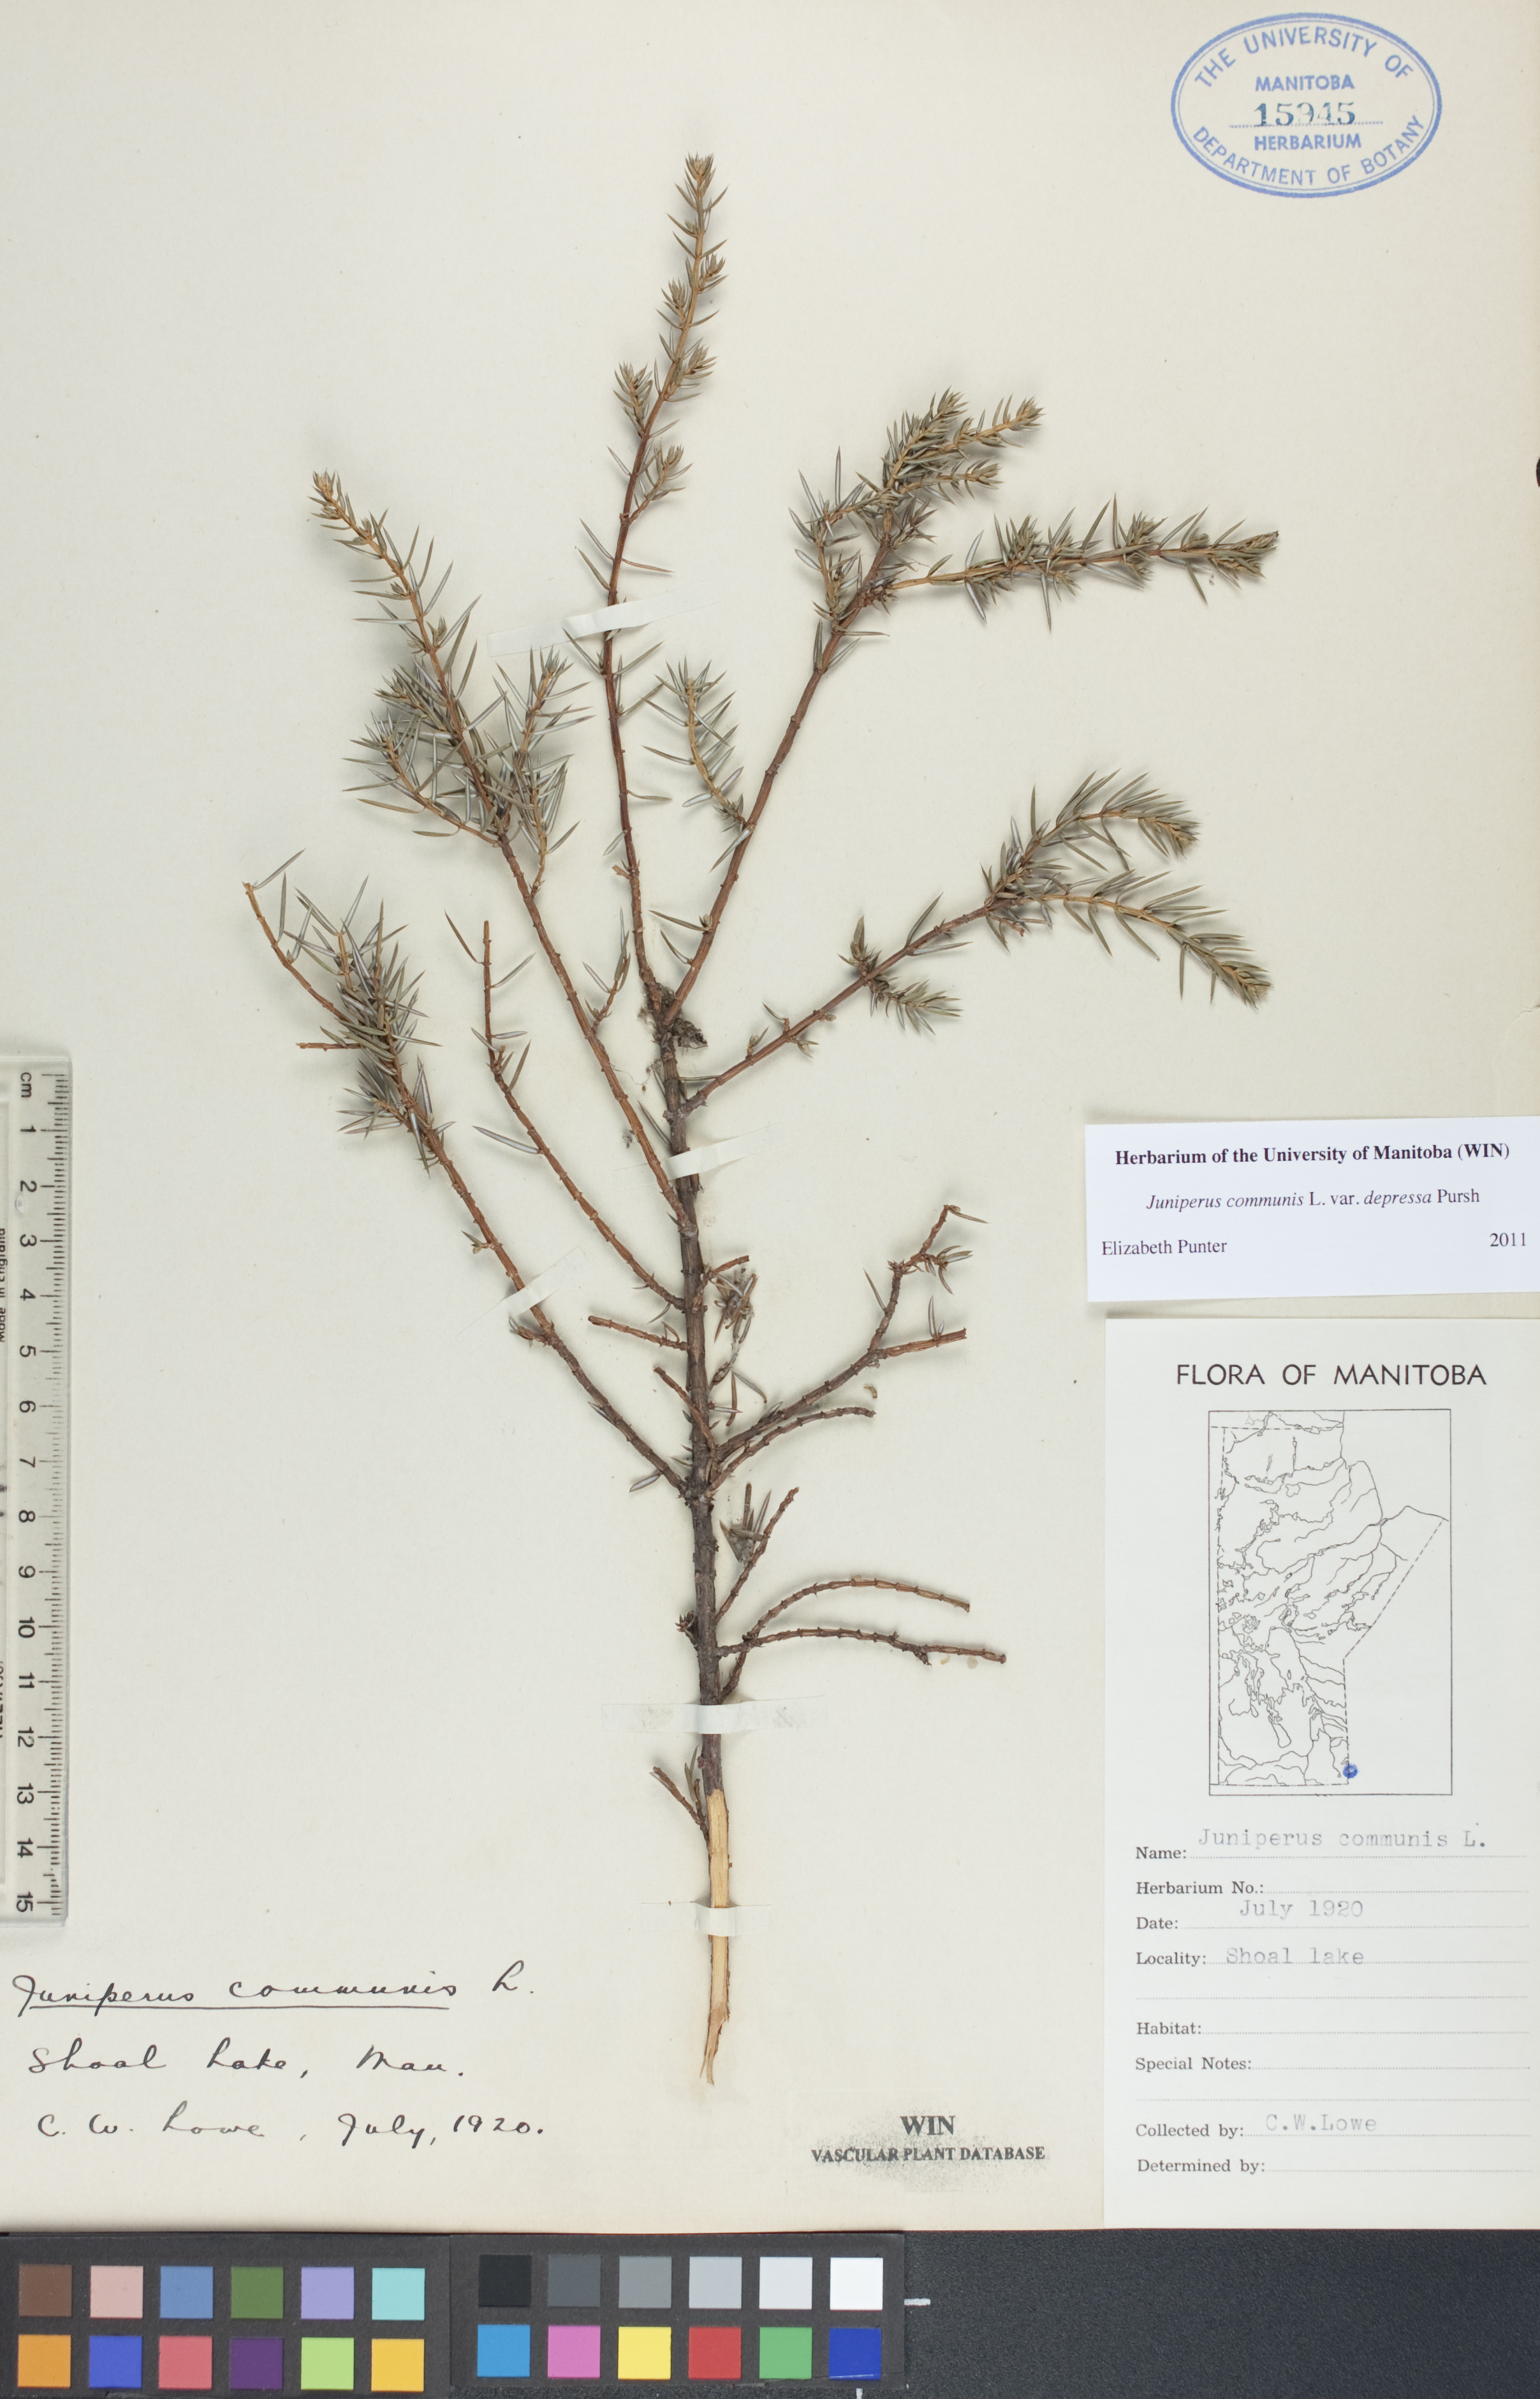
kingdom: Plantae
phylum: Tracheophyta
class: Pinopsida
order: Pinales
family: Cupressaceae
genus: Juniperus
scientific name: Juniperus communis
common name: Common juniper
